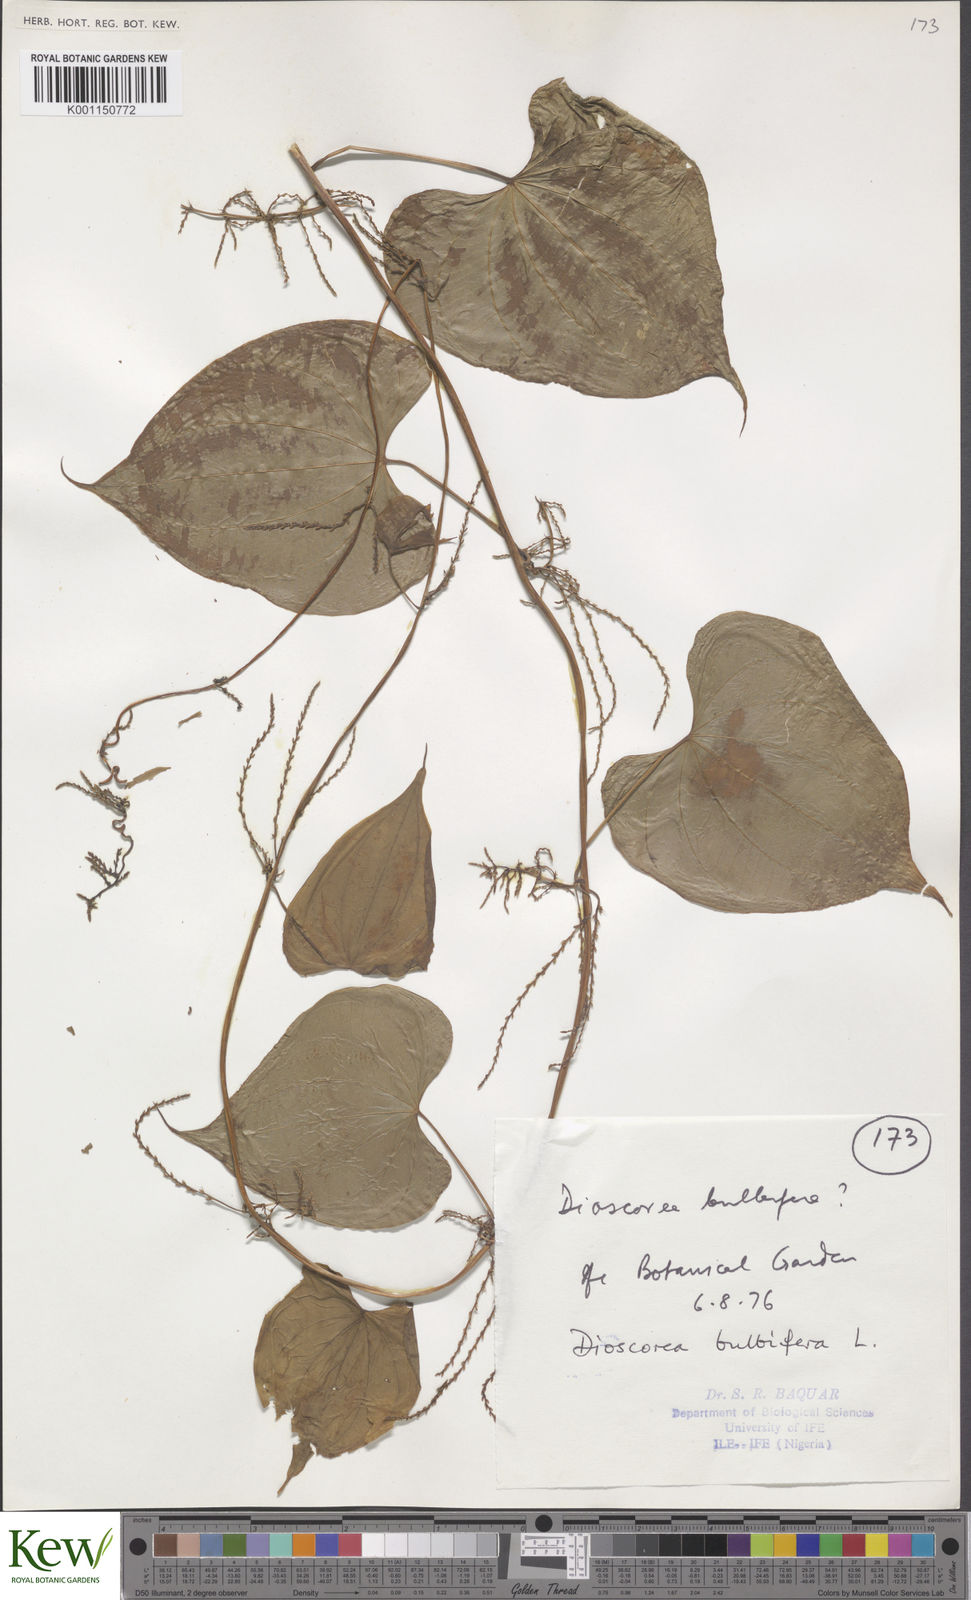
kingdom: Plantae
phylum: Tracheophyta
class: Liliopsida
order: Dioscoreales
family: Dioscoreaceae
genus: Dioscorea
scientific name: Dioscorea bulbifera
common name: Air yam
